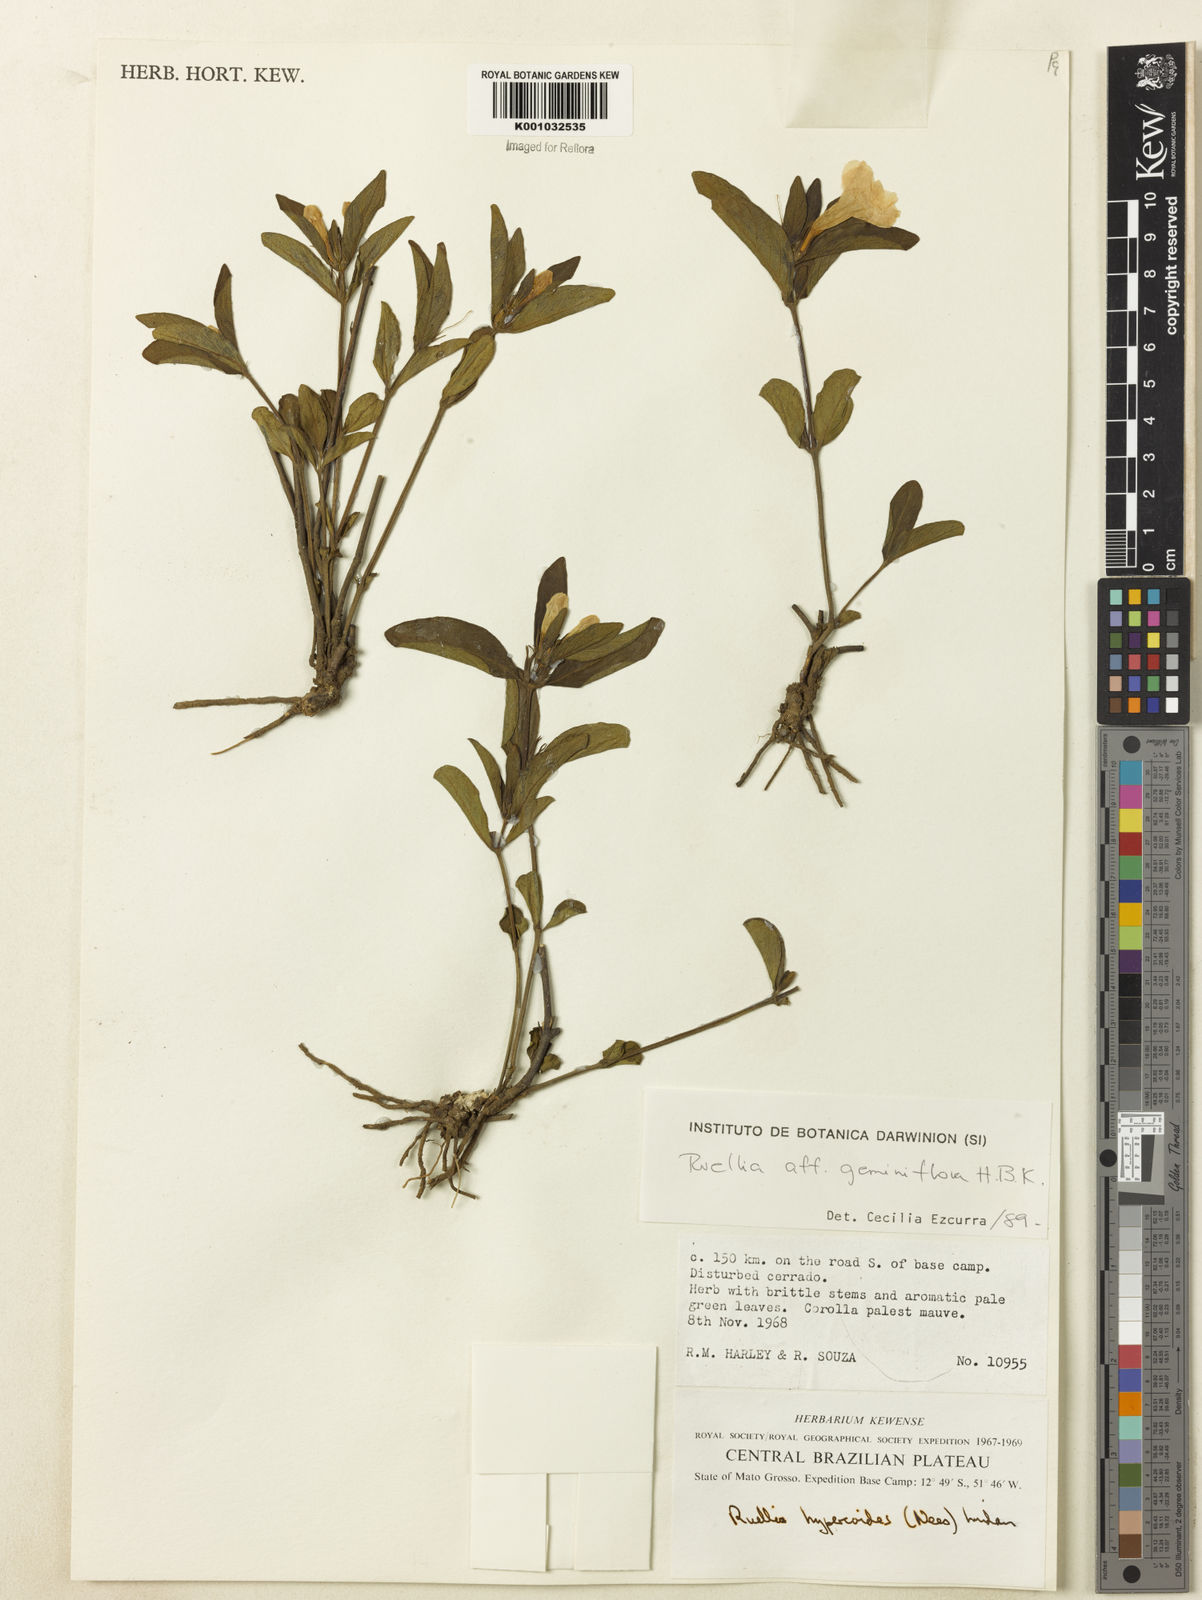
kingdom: Plantae
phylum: Tracheophyta
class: Magnoliopsida
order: Lamiales
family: Acanthaceae
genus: Ruellia
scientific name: Ruellia magniflora
